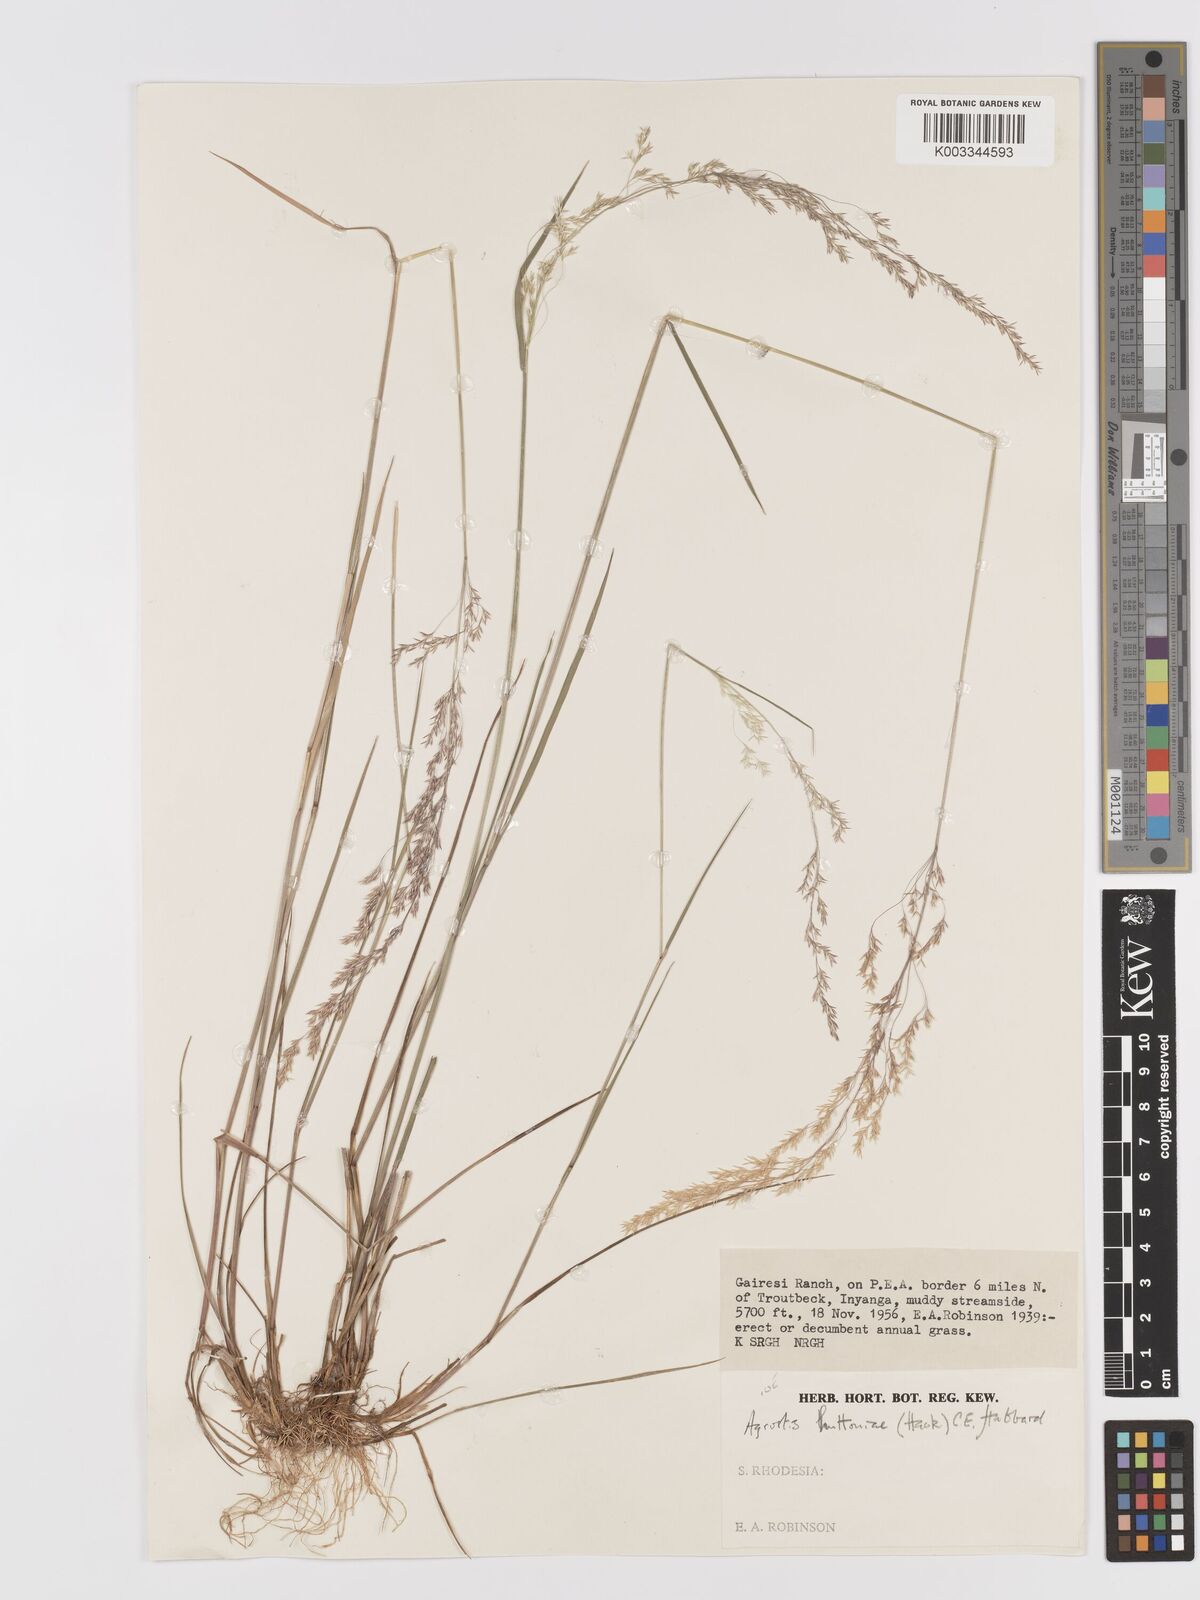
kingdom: Plantae
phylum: Tracheophyta
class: Liliopsida
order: Poales
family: Poaceae
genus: Lachnagrostis
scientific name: Lachnagrostis lachnantha
